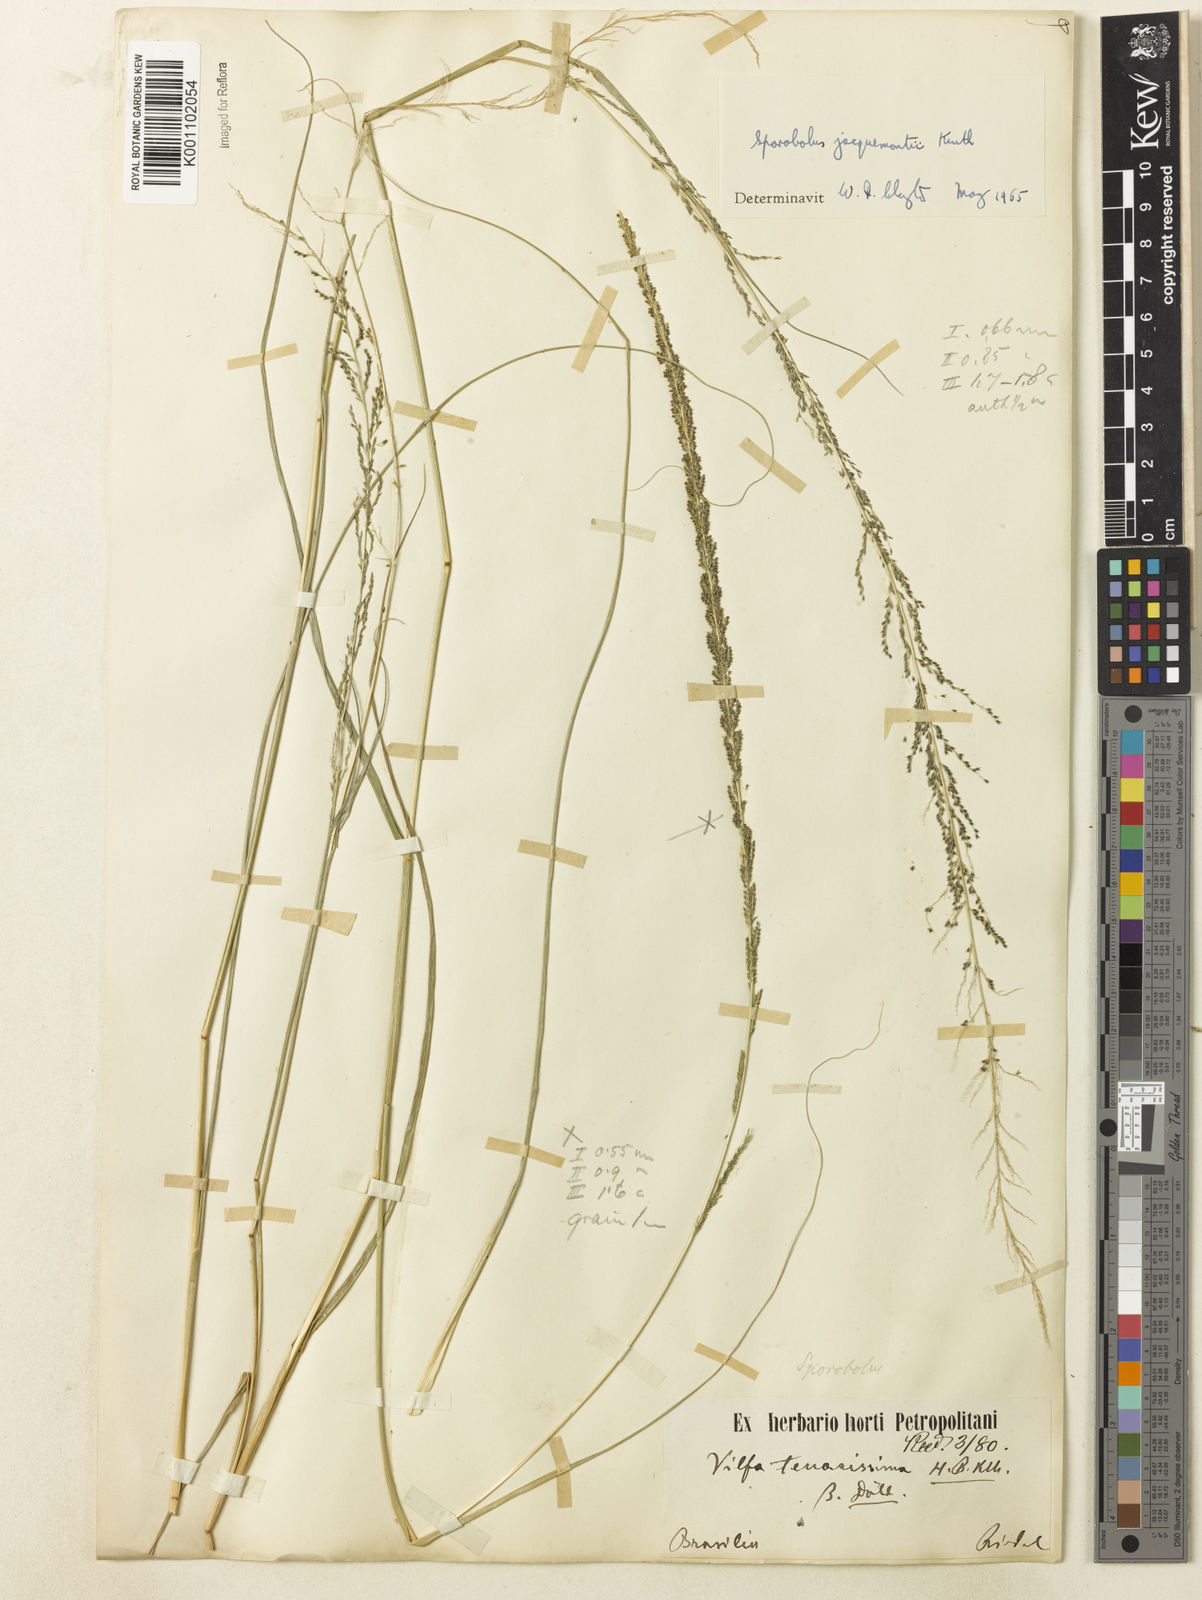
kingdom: Plantae
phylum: Tracheophyta
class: Liliopsida
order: Poales
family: Poaceae
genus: Sporobolus
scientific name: Sporobolus pyramidalis
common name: West indian dropseed
